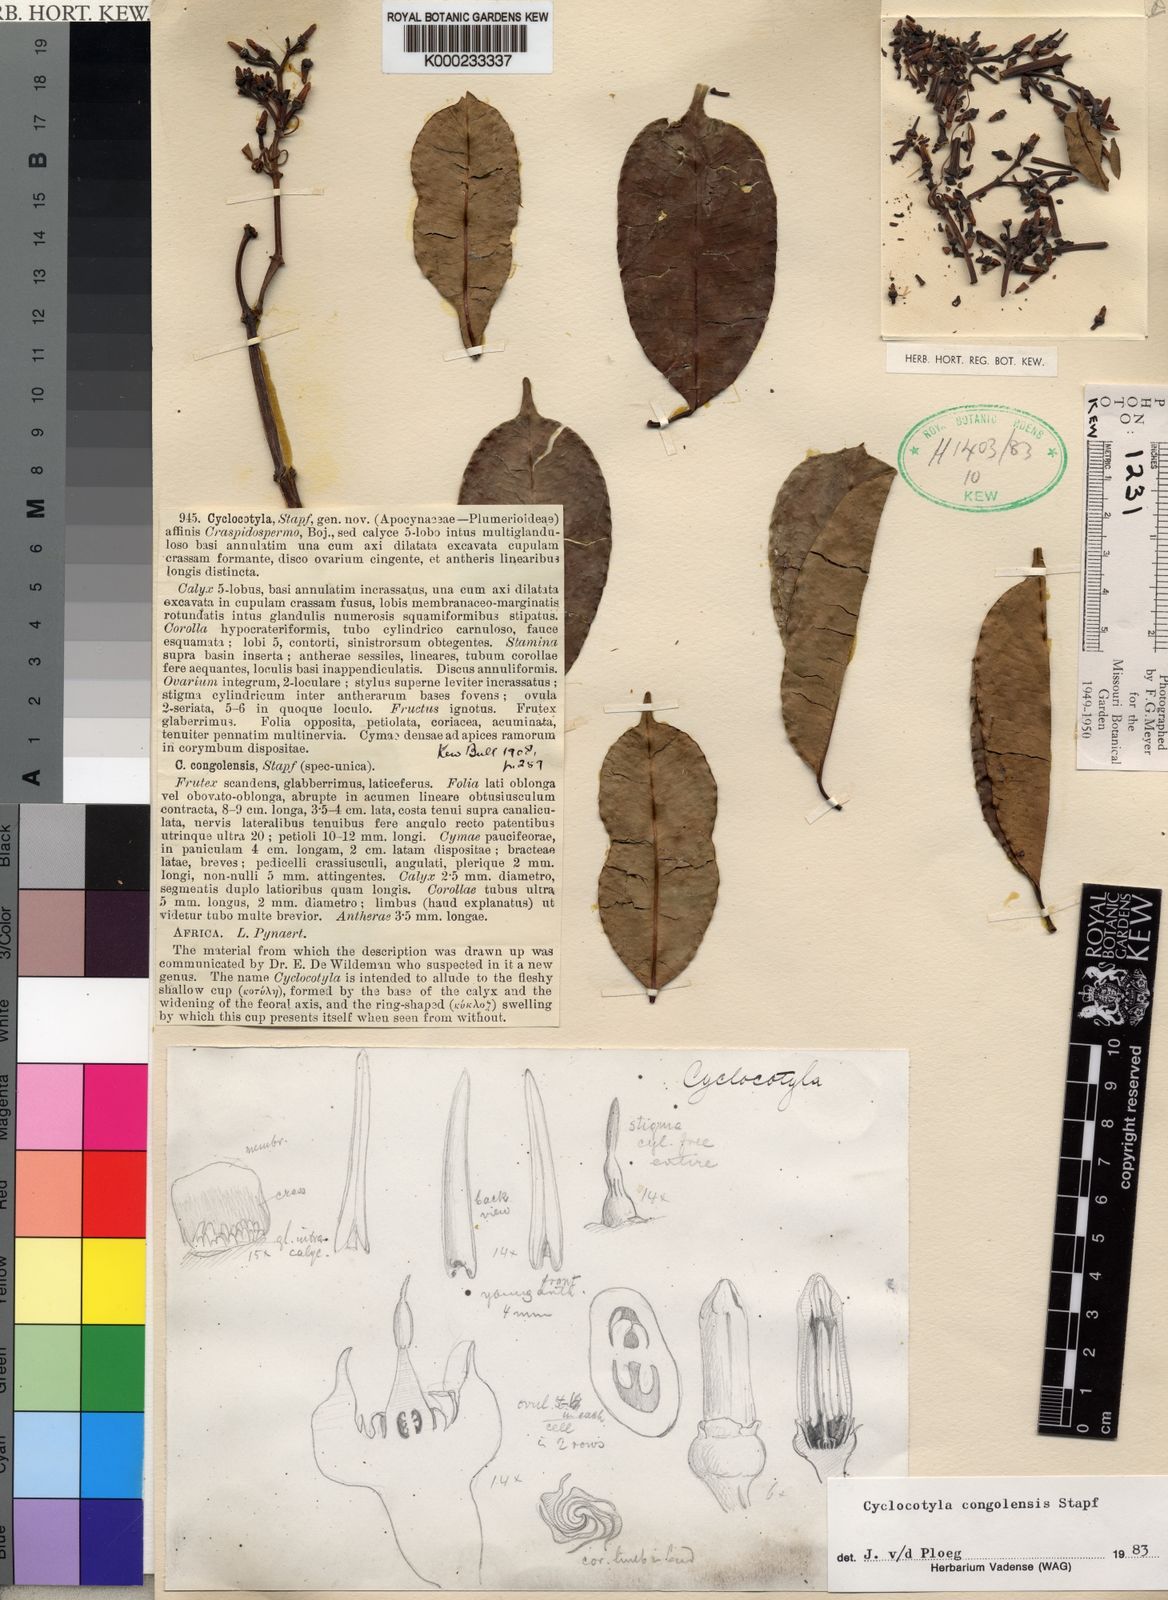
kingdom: Plantae
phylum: Tracheophyta
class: Magnoliopsida
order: Gentianales
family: Apocynaceae
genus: Cyclocotyla
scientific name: Cyclocotyla congolensis
